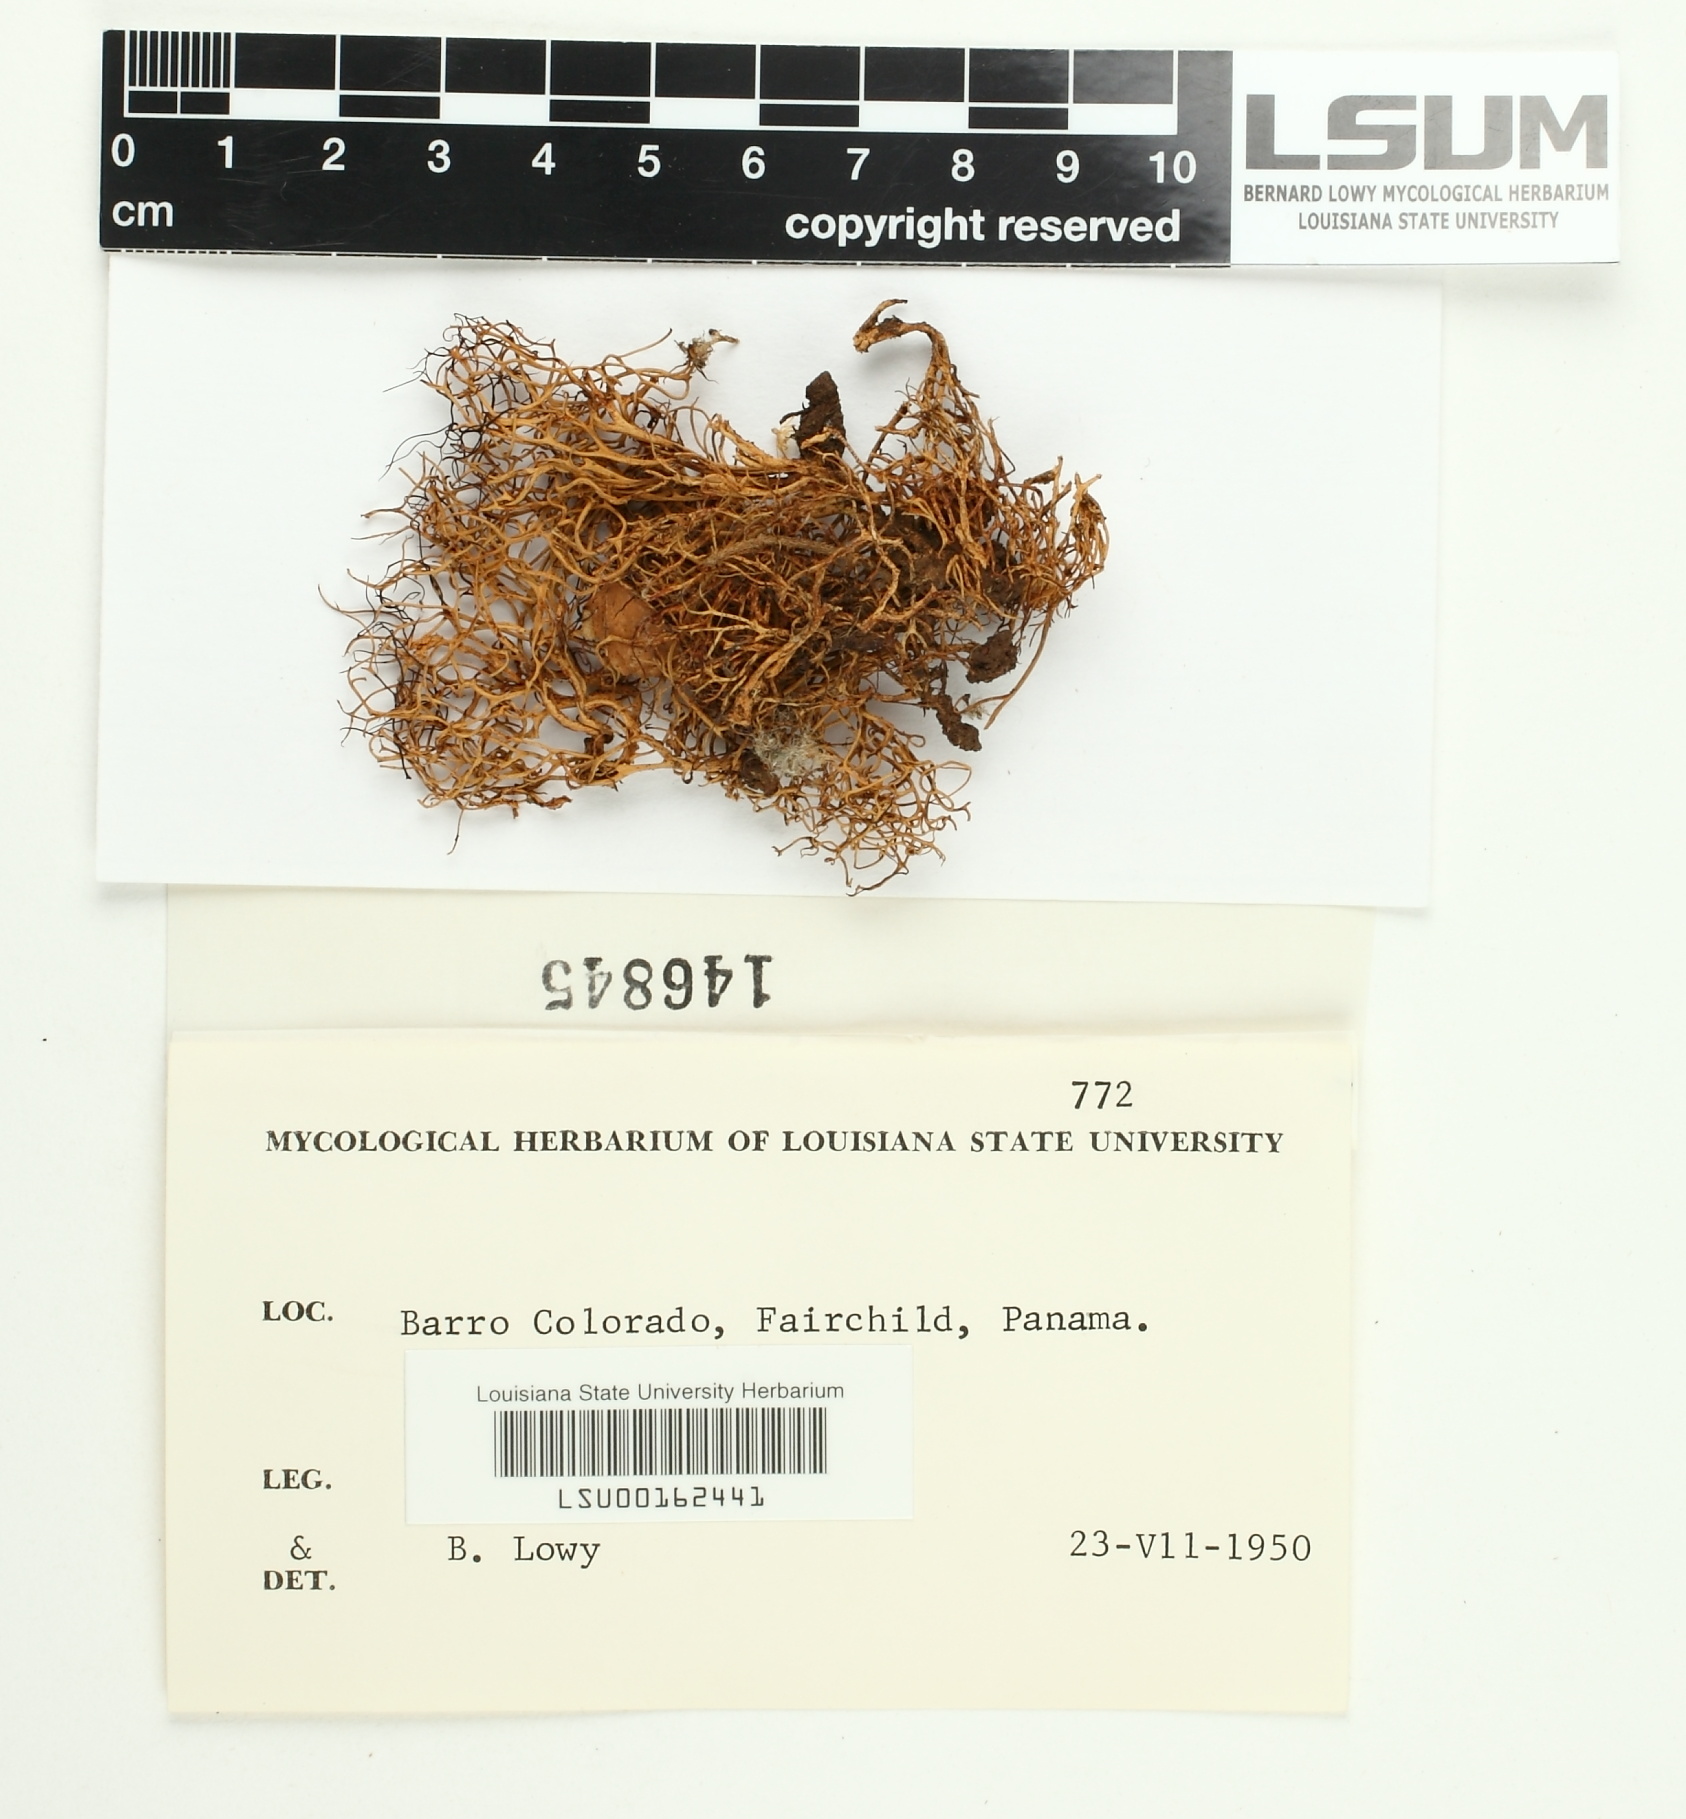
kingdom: Fungi
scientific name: Fungi
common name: Fungi
